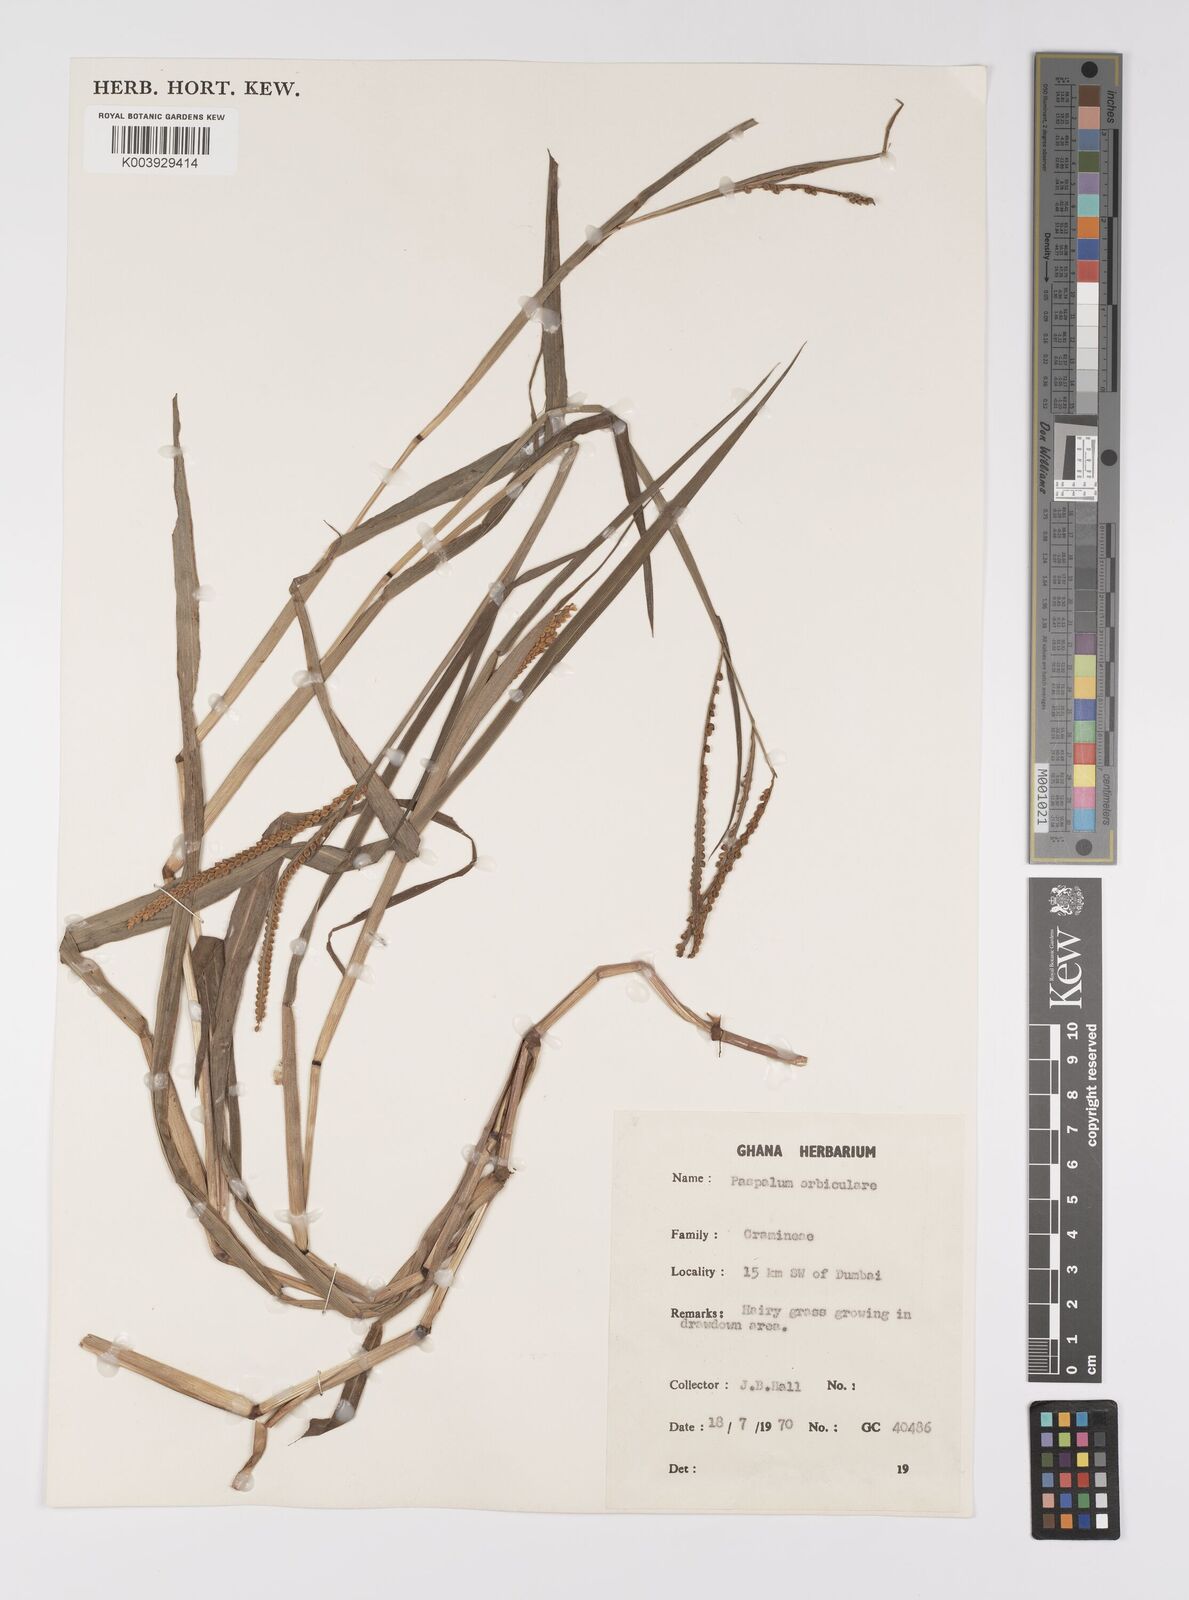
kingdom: Plantae
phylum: Tracheophyta
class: Liliopsida
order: Poales
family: Poaceae
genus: Paspalum
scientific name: Paspalum scrobiculatum
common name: Kodo millet
